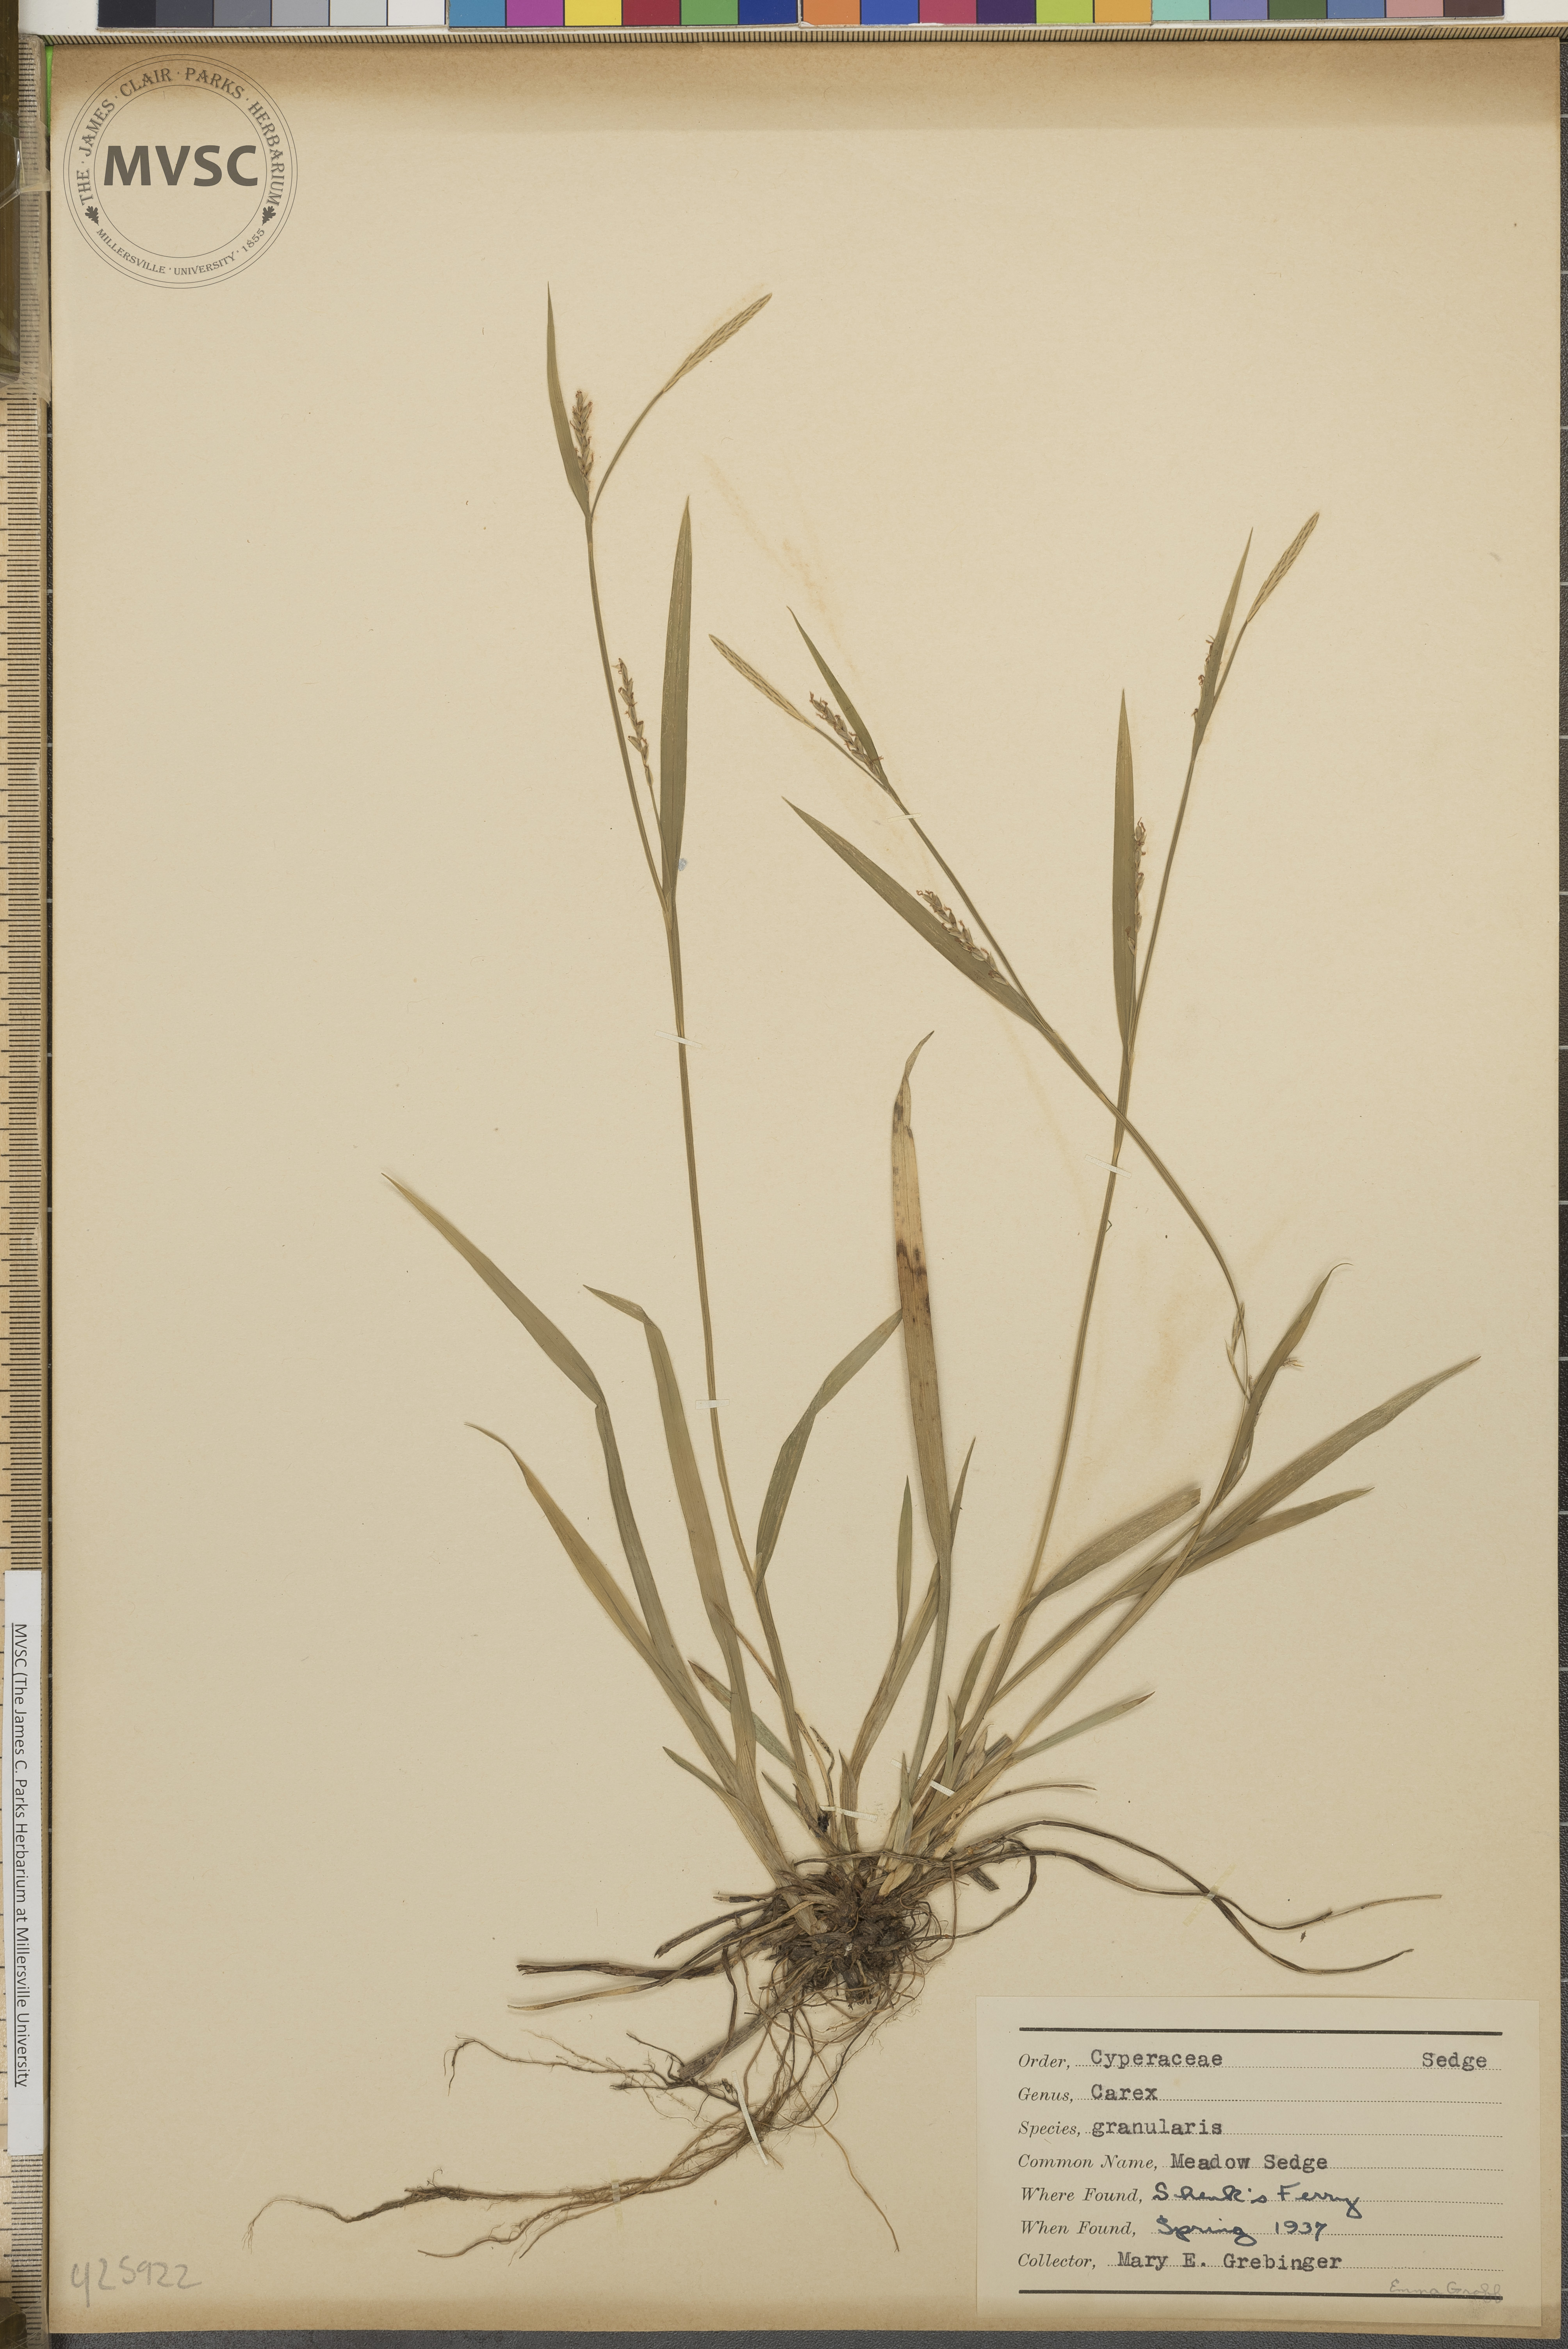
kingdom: Plantae
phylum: Tracheophyta
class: Liliopsida
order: Poales
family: Cyperaceae
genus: Carex
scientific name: Carex granularis
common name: Meadow sedge
